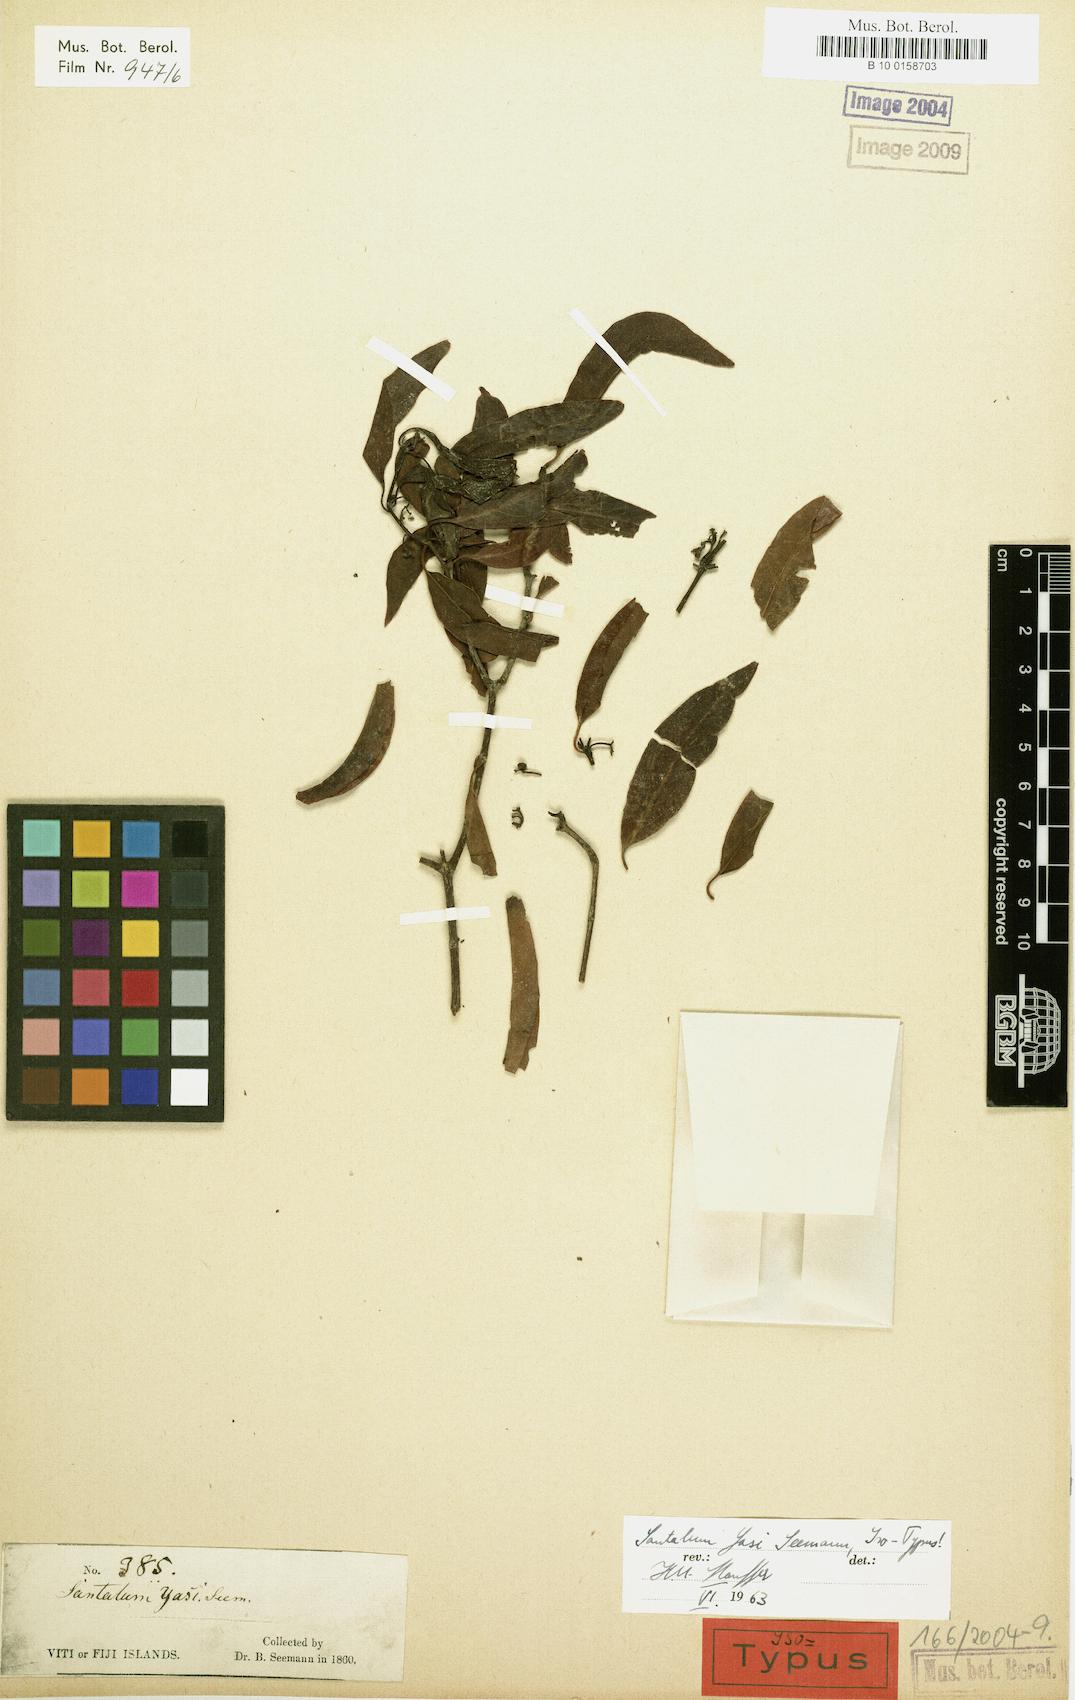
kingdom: Plantae
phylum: Tracheophyta
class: Magnoliopsida
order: Santalales
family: Santalaceae
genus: Santalum
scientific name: Santalum yasi
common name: Yasi
